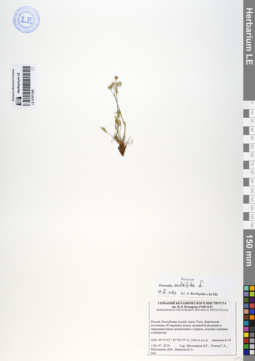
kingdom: Plantae
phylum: Tracheophyta
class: Magnoliopsida
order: Rosales
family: Rosaceae
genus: Potentilla
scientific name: Potentilla multifida
